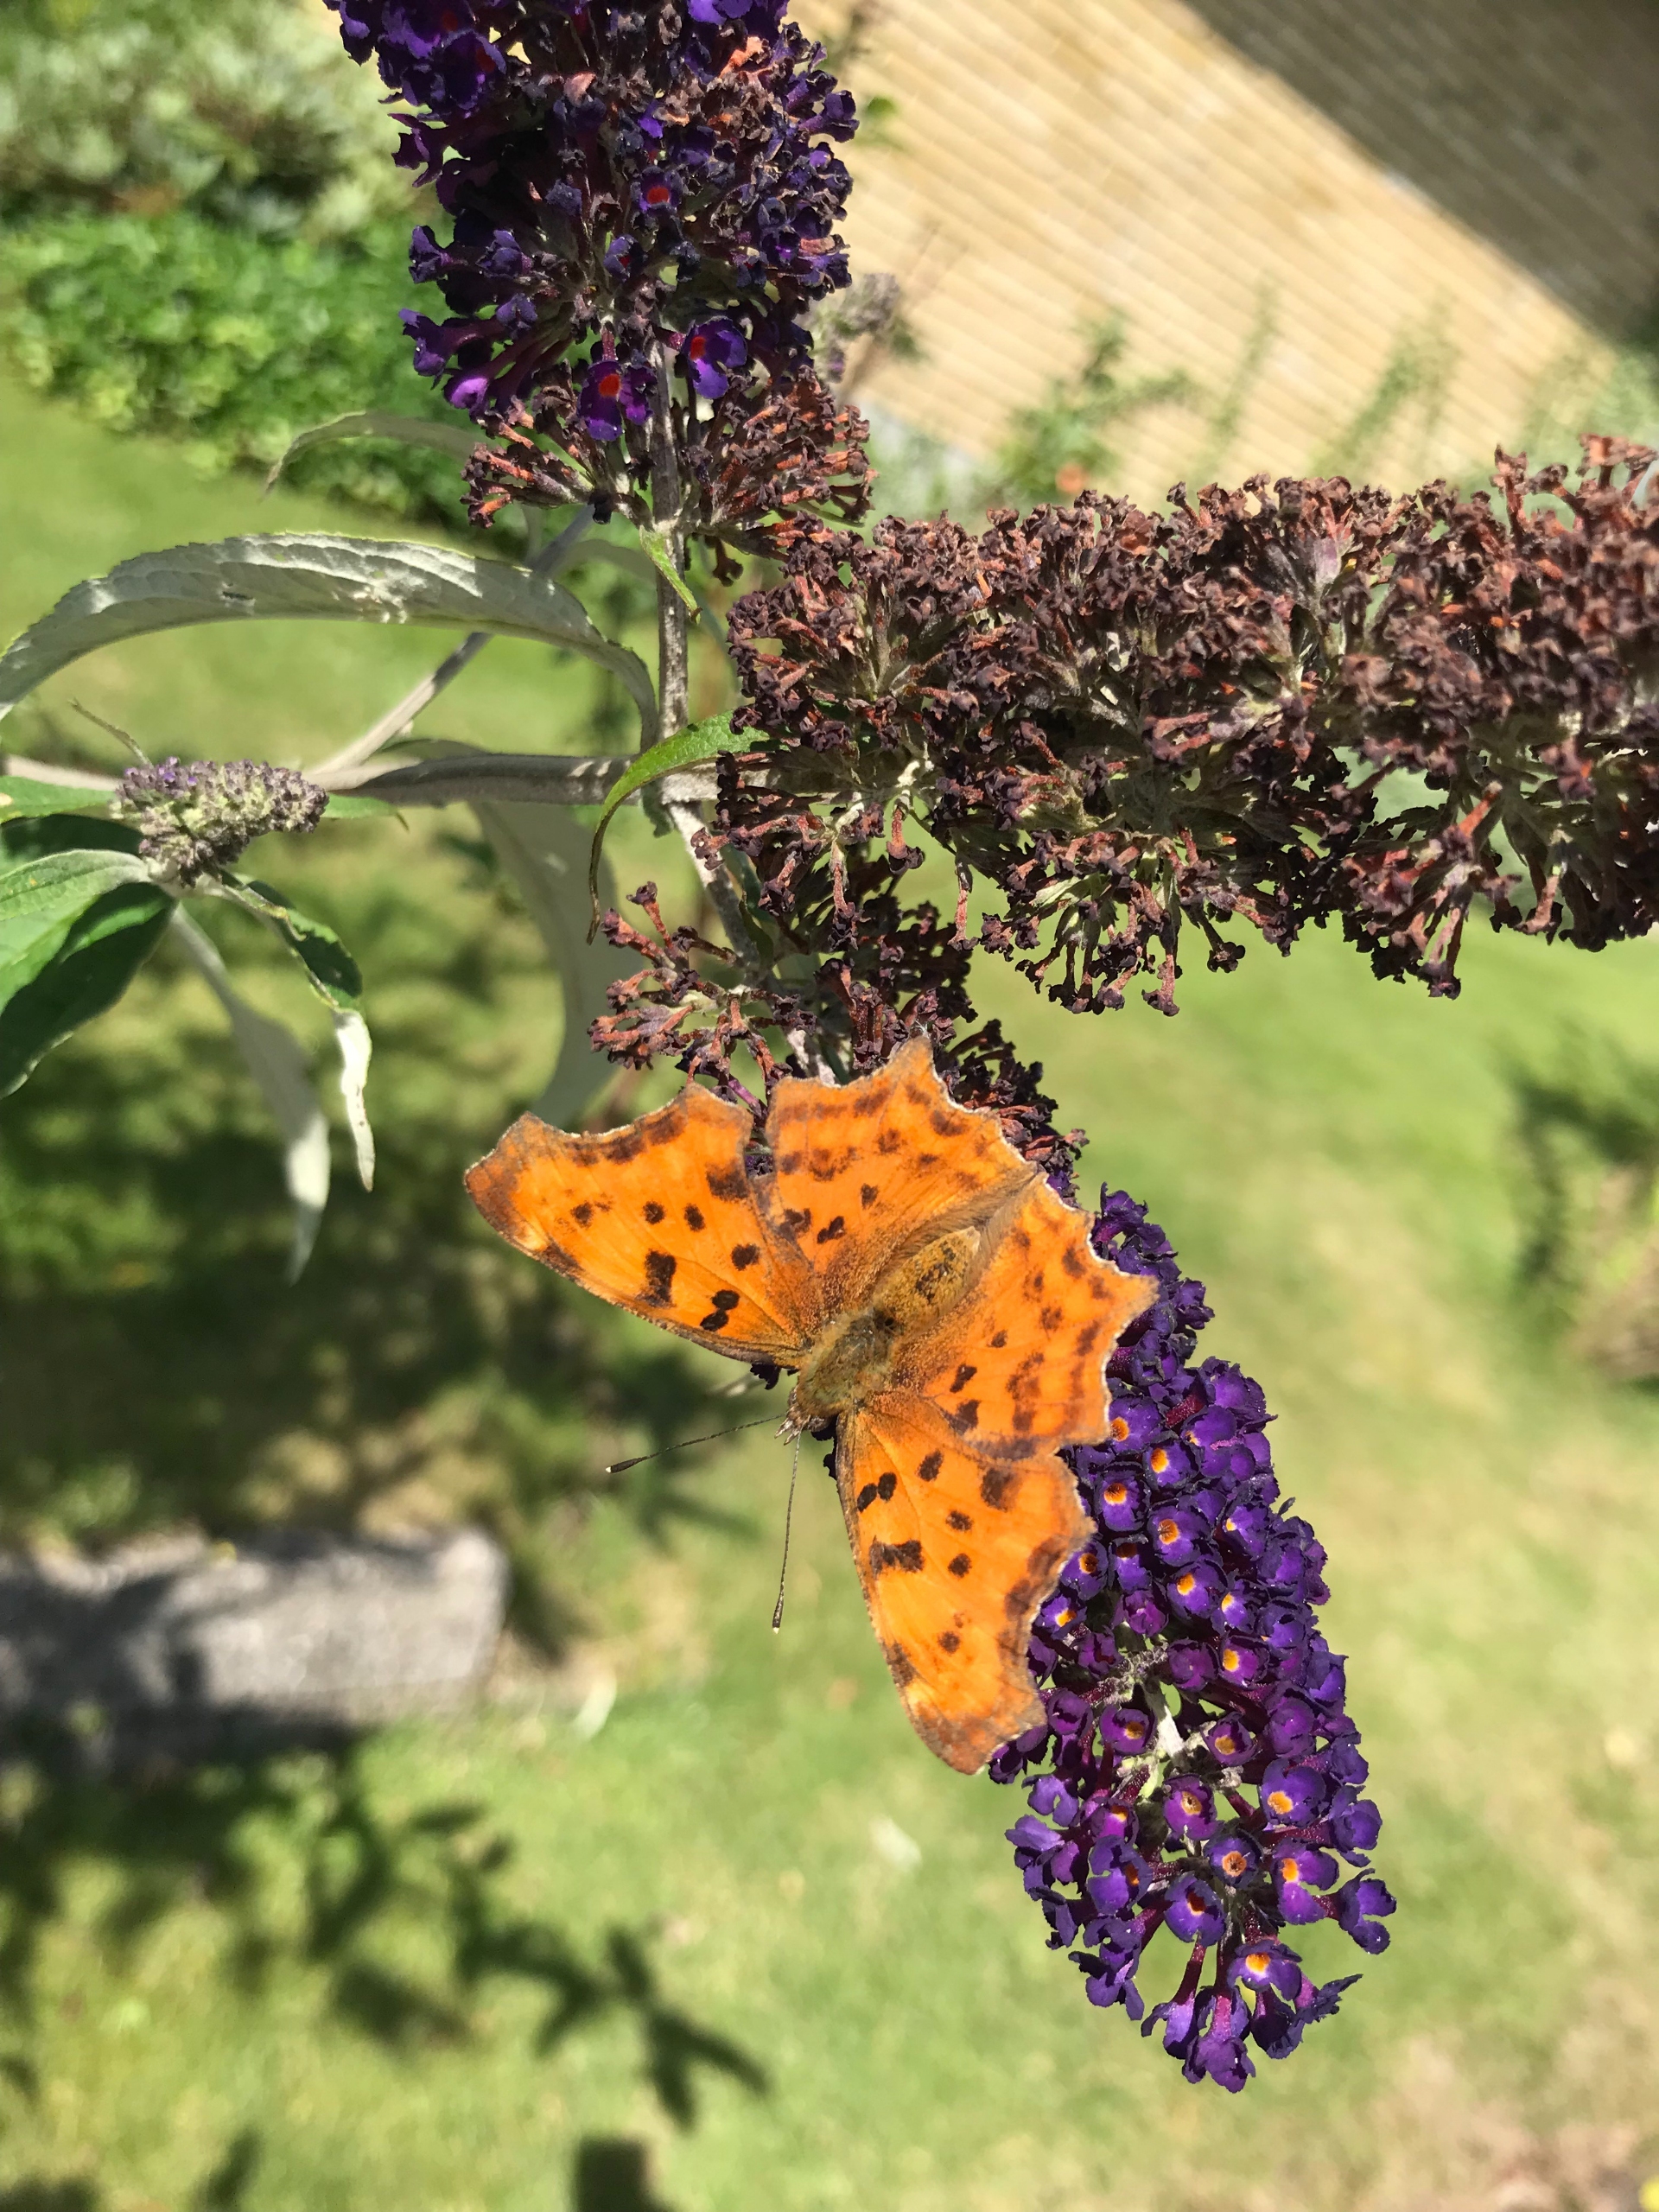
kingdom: Animalia
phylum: Arthropoda
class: Insecta
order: Lepidoptera
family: Nymphalidae
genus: Polygonia
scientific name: Polygonia c-album
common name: Det hvide C
